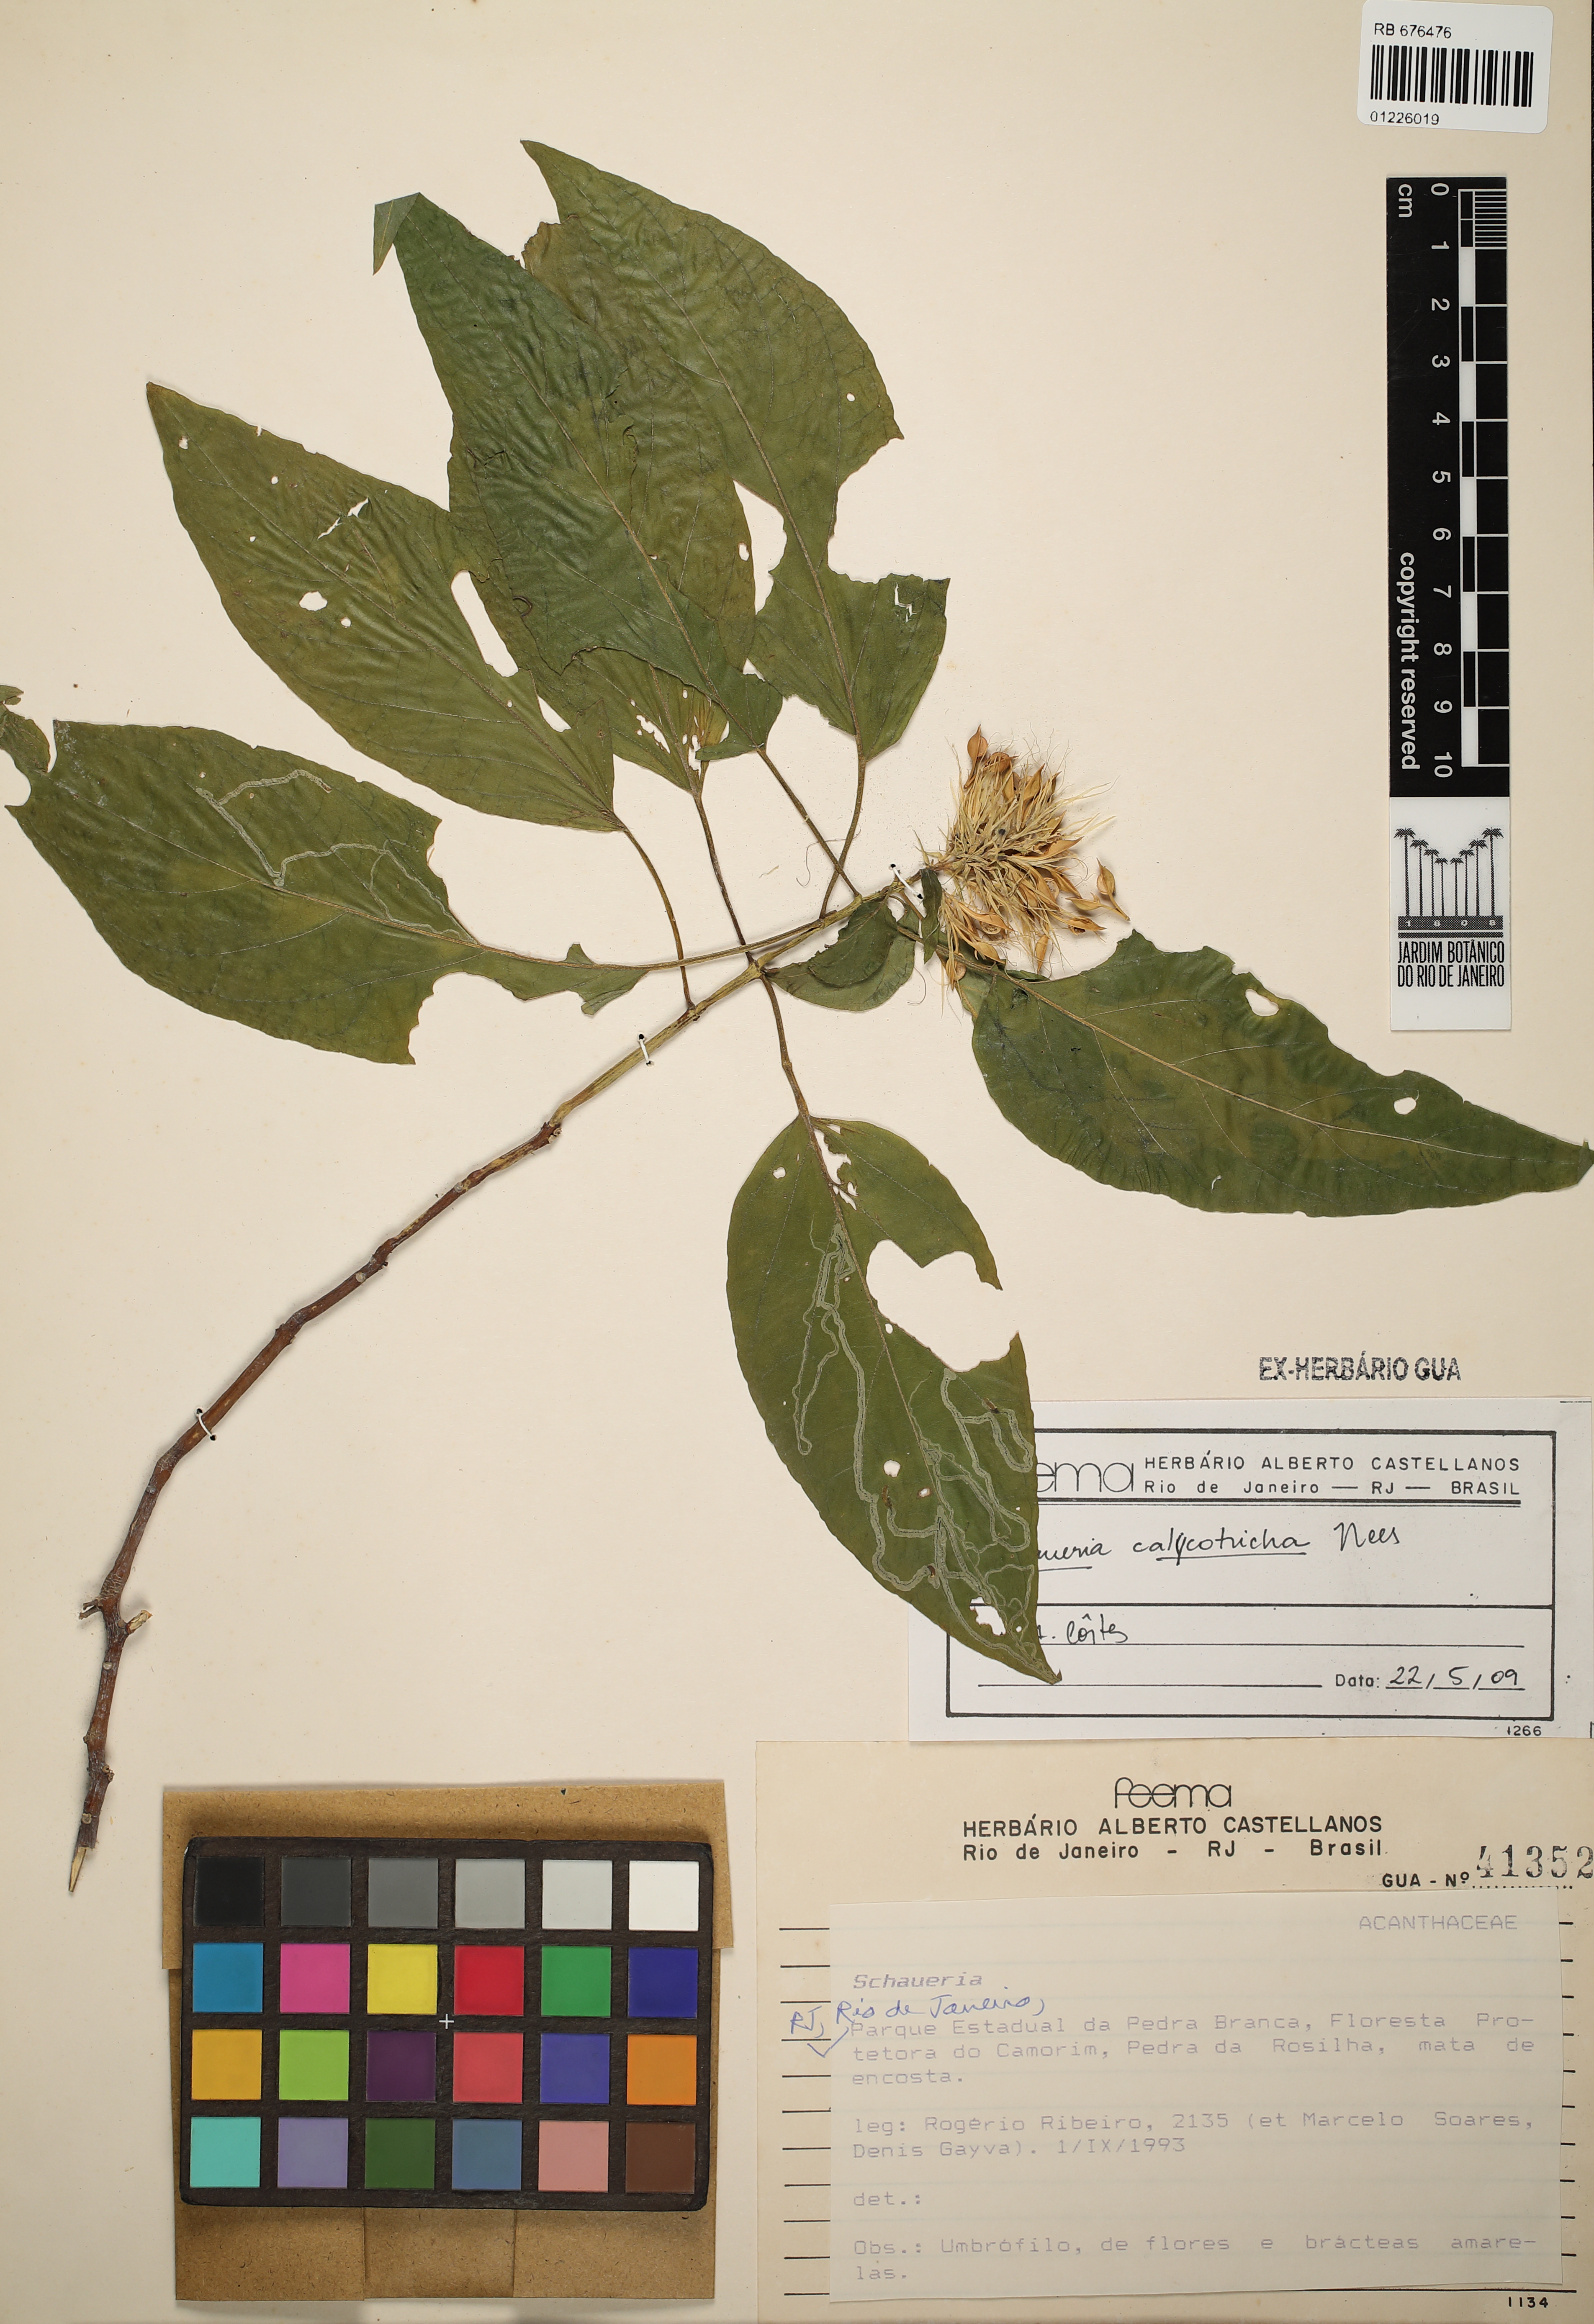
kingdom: Plantae
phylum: Tracheophyta
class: Magnoliopsida
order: Lamiales
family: Acanthaceae
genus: Schaueria
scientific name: Schaueria calytricha
